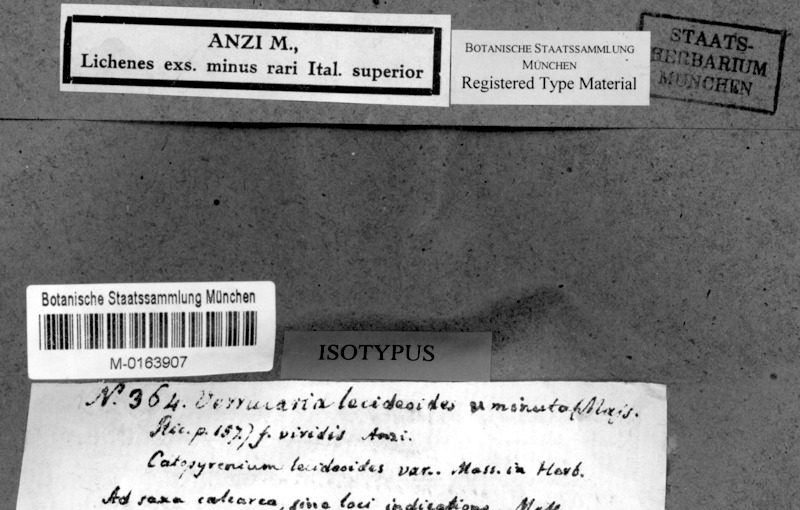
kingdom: Fungi
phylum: Ascomycota
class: Eurotiomycetes
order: Verrucariales
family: Verrucariaceae
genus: Verruculopsis
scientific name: Verruculopsis lecideoides
